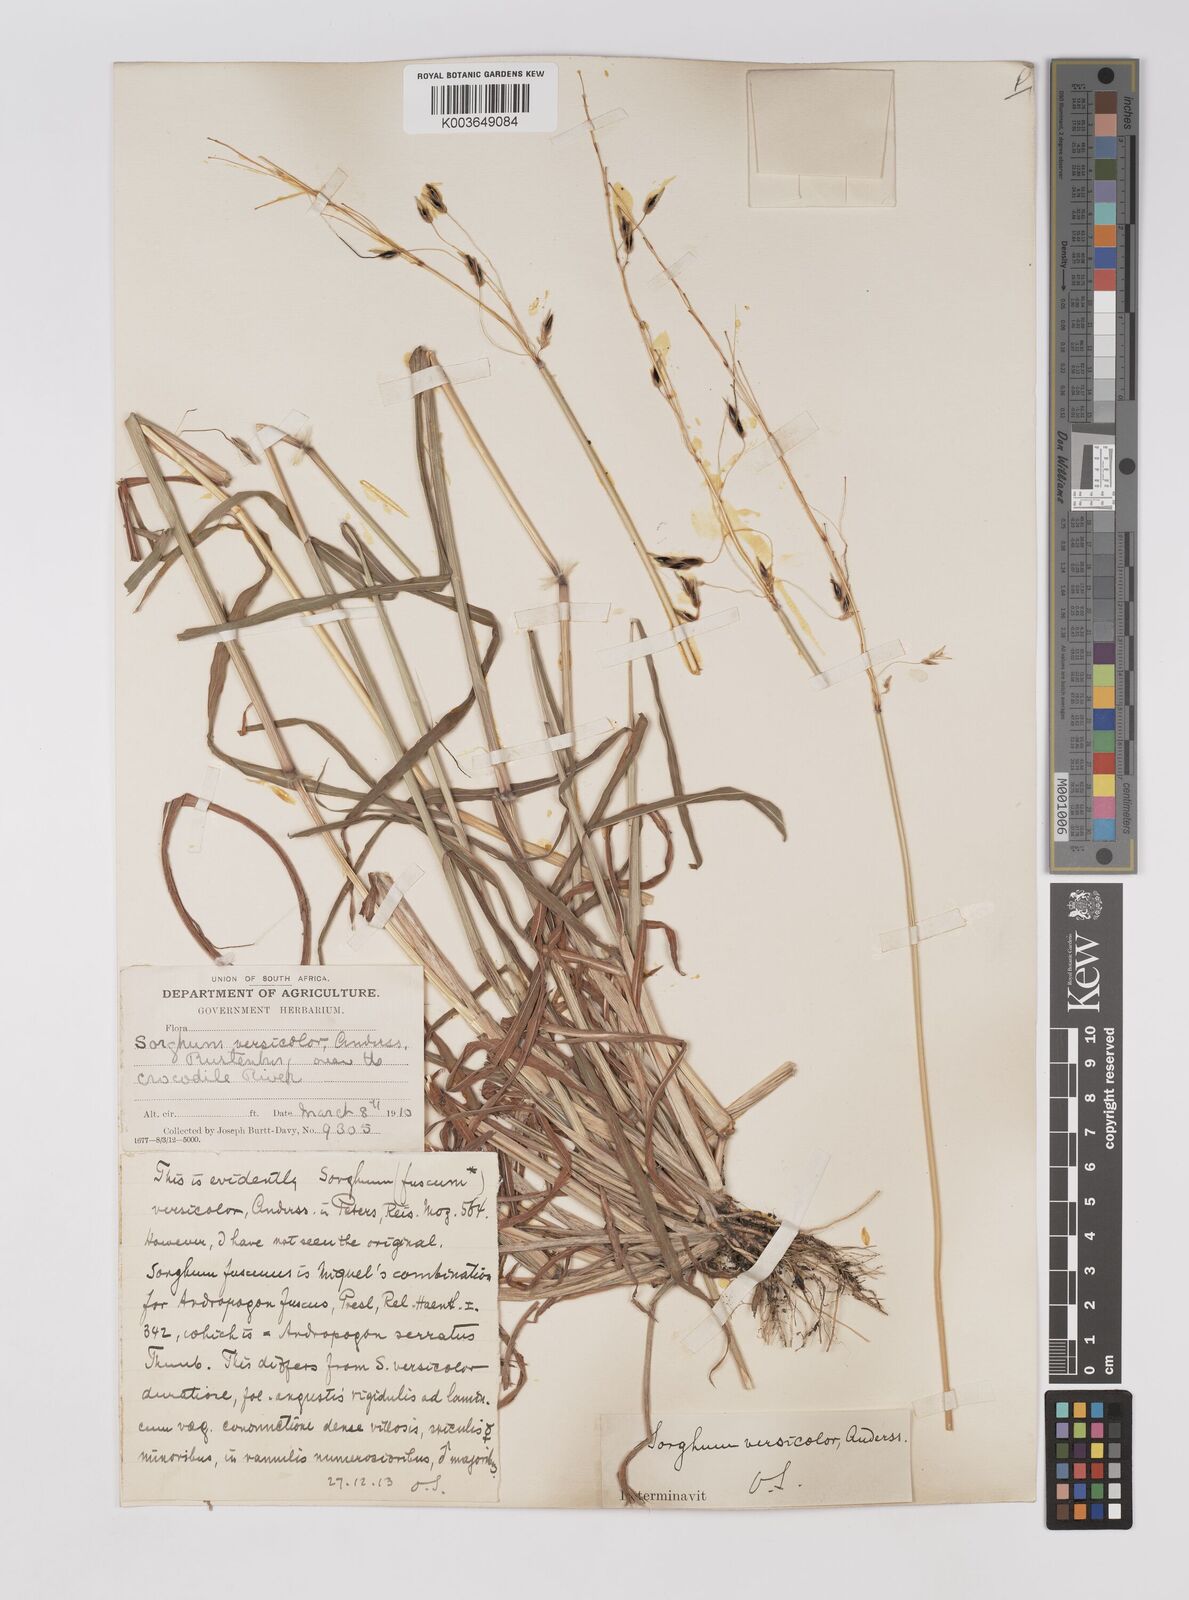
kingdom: Plantae
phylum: Tracheophyta
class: Liliopsida
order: Poales
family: Poaceae
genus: Sarga
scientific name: Sarga versicolor
